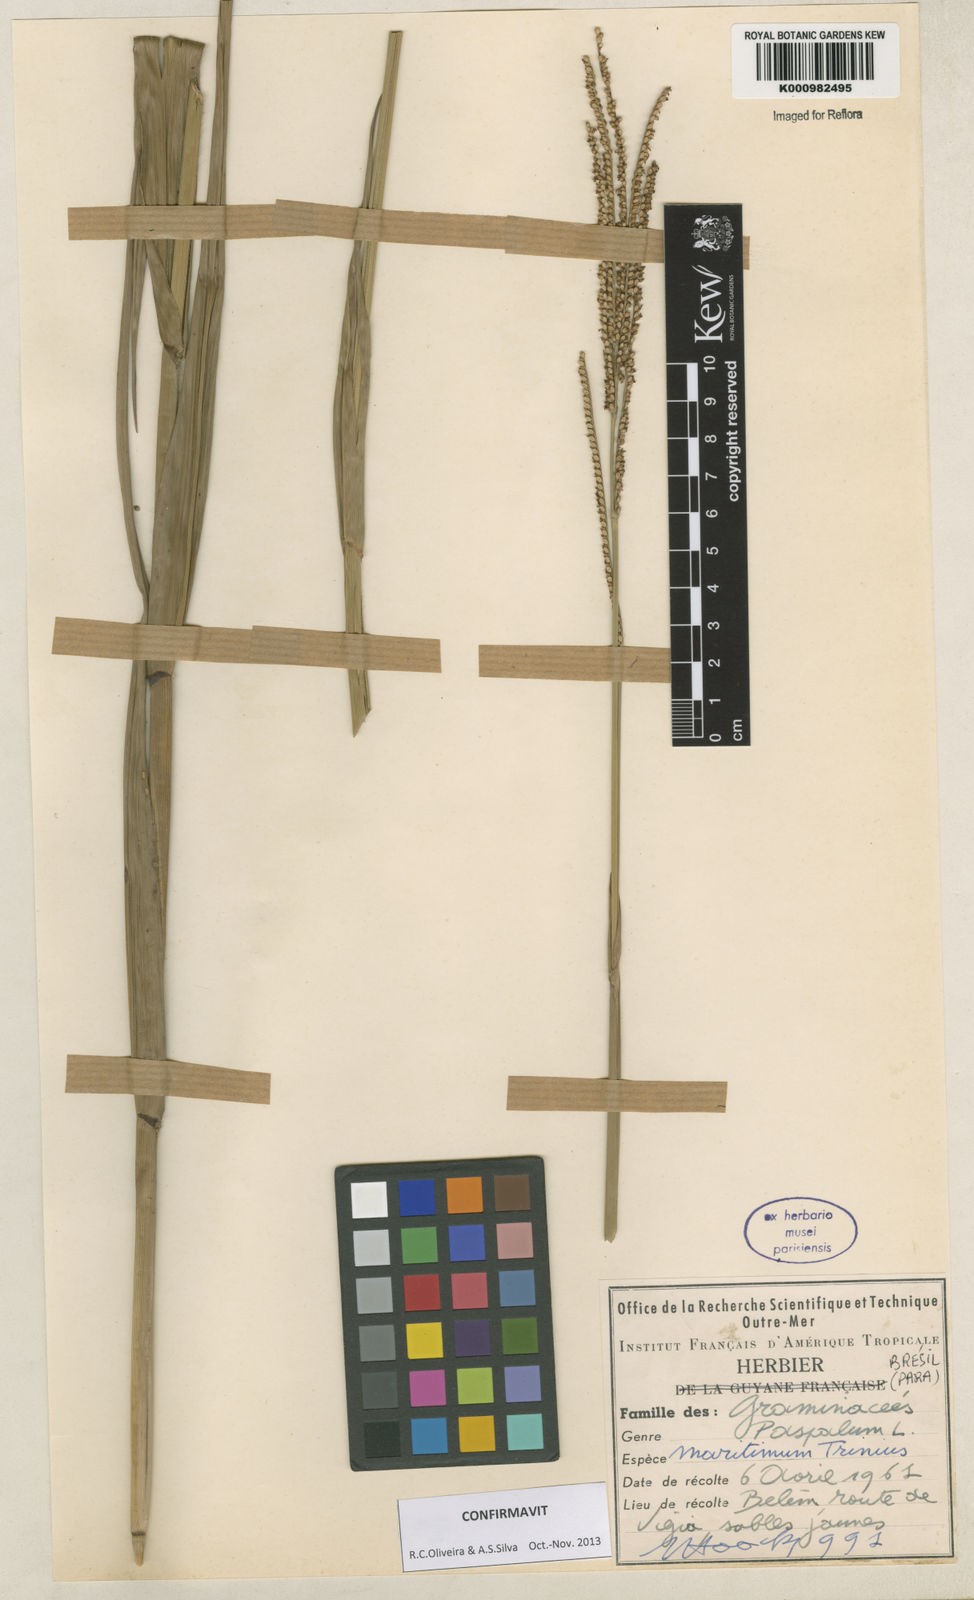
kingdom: Plantae
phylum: Tracheophyta
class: Liliopsida
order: Poales
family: Poaceae
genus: Paspalum
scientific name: Paspalum maritimum
